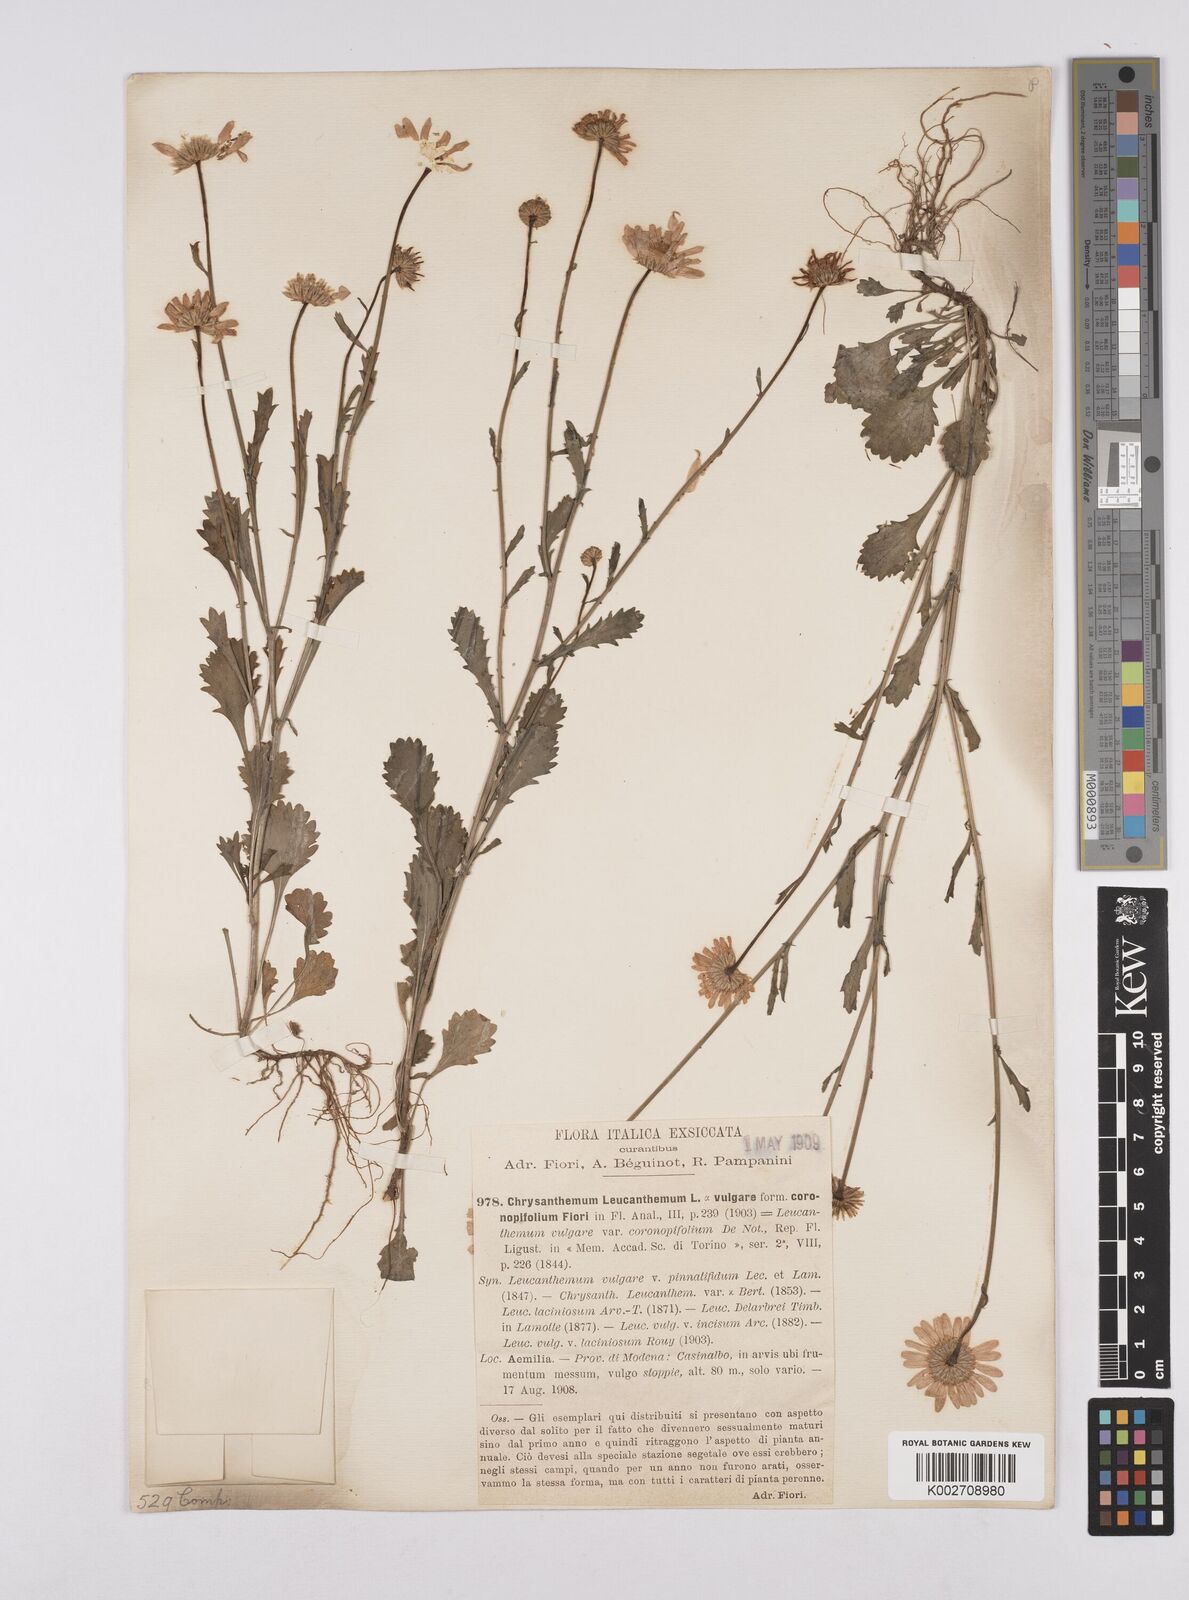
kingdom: Plantae
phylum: Tracheophyta
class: Magnoliopsida
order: Asterales
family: Asteraceae
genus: Leucanthemum
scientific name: Leucanthemum vulgare
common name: Oxeye daisy
